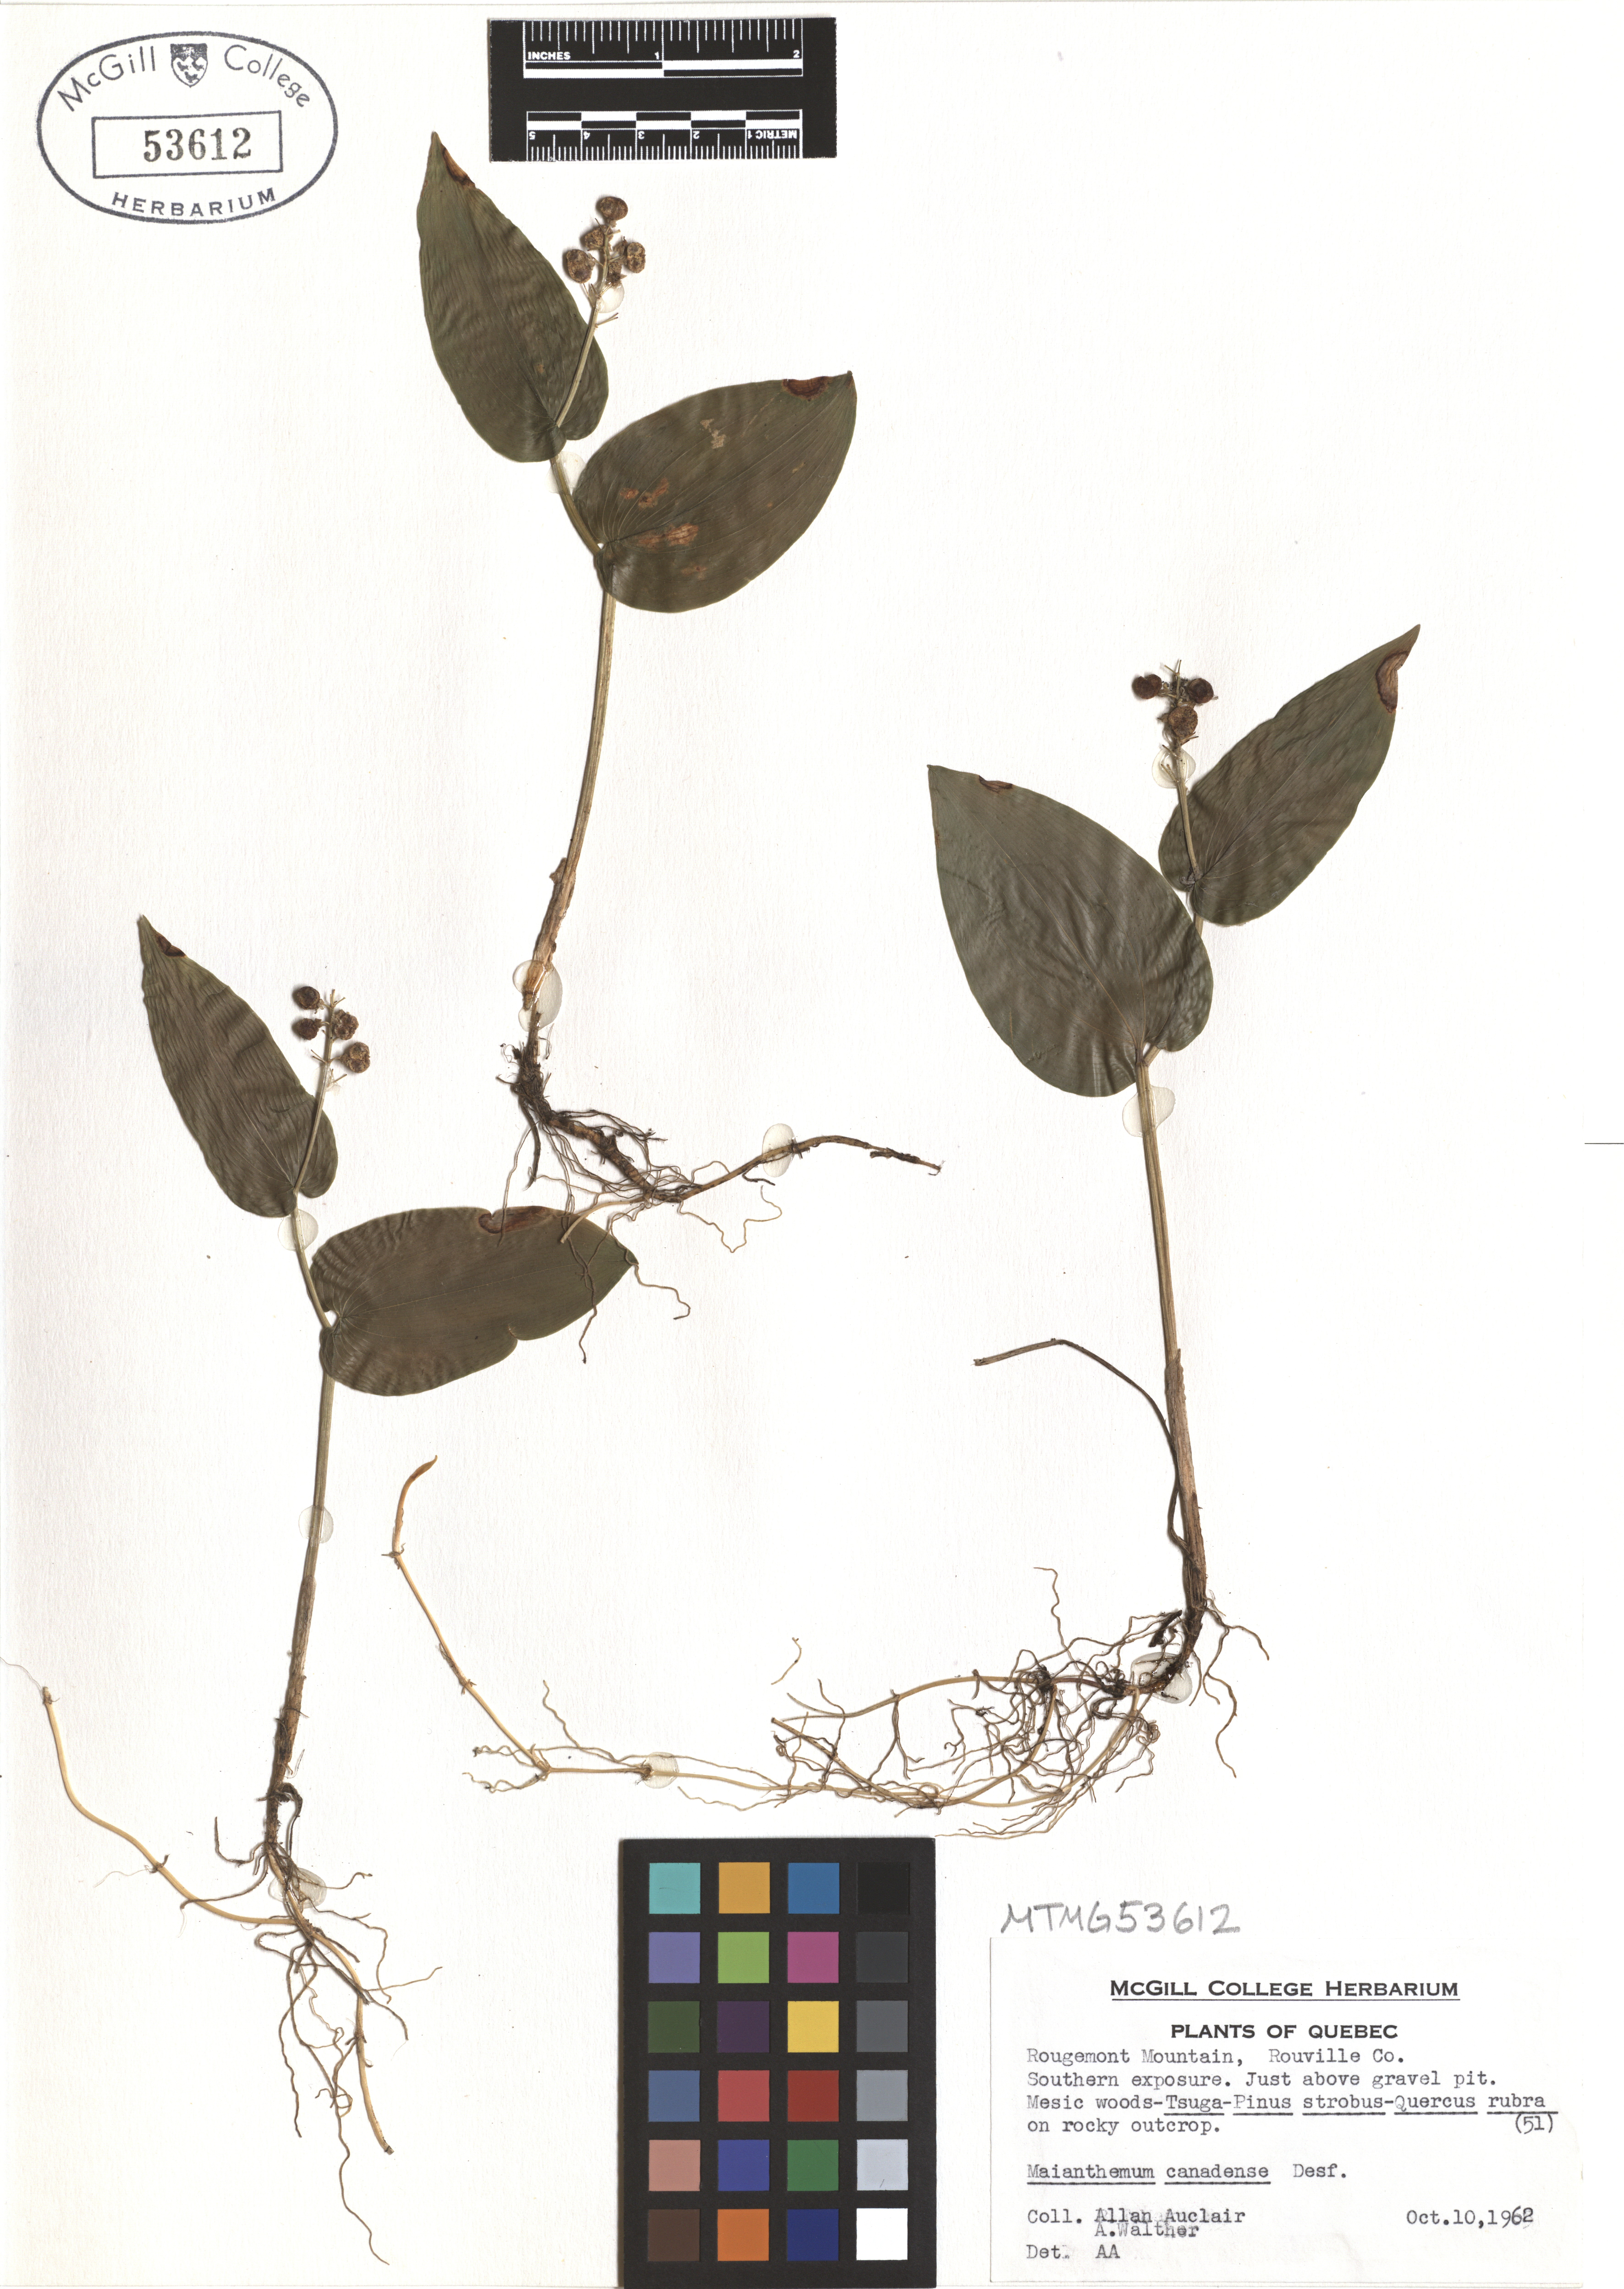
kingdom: Plantae
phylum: Tracheophyta
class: Liliopsida
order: Asparagales
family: Asparagaceae
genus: Maianthemum
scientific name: Maianthemum canadense
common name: False lily-of-the-valley
